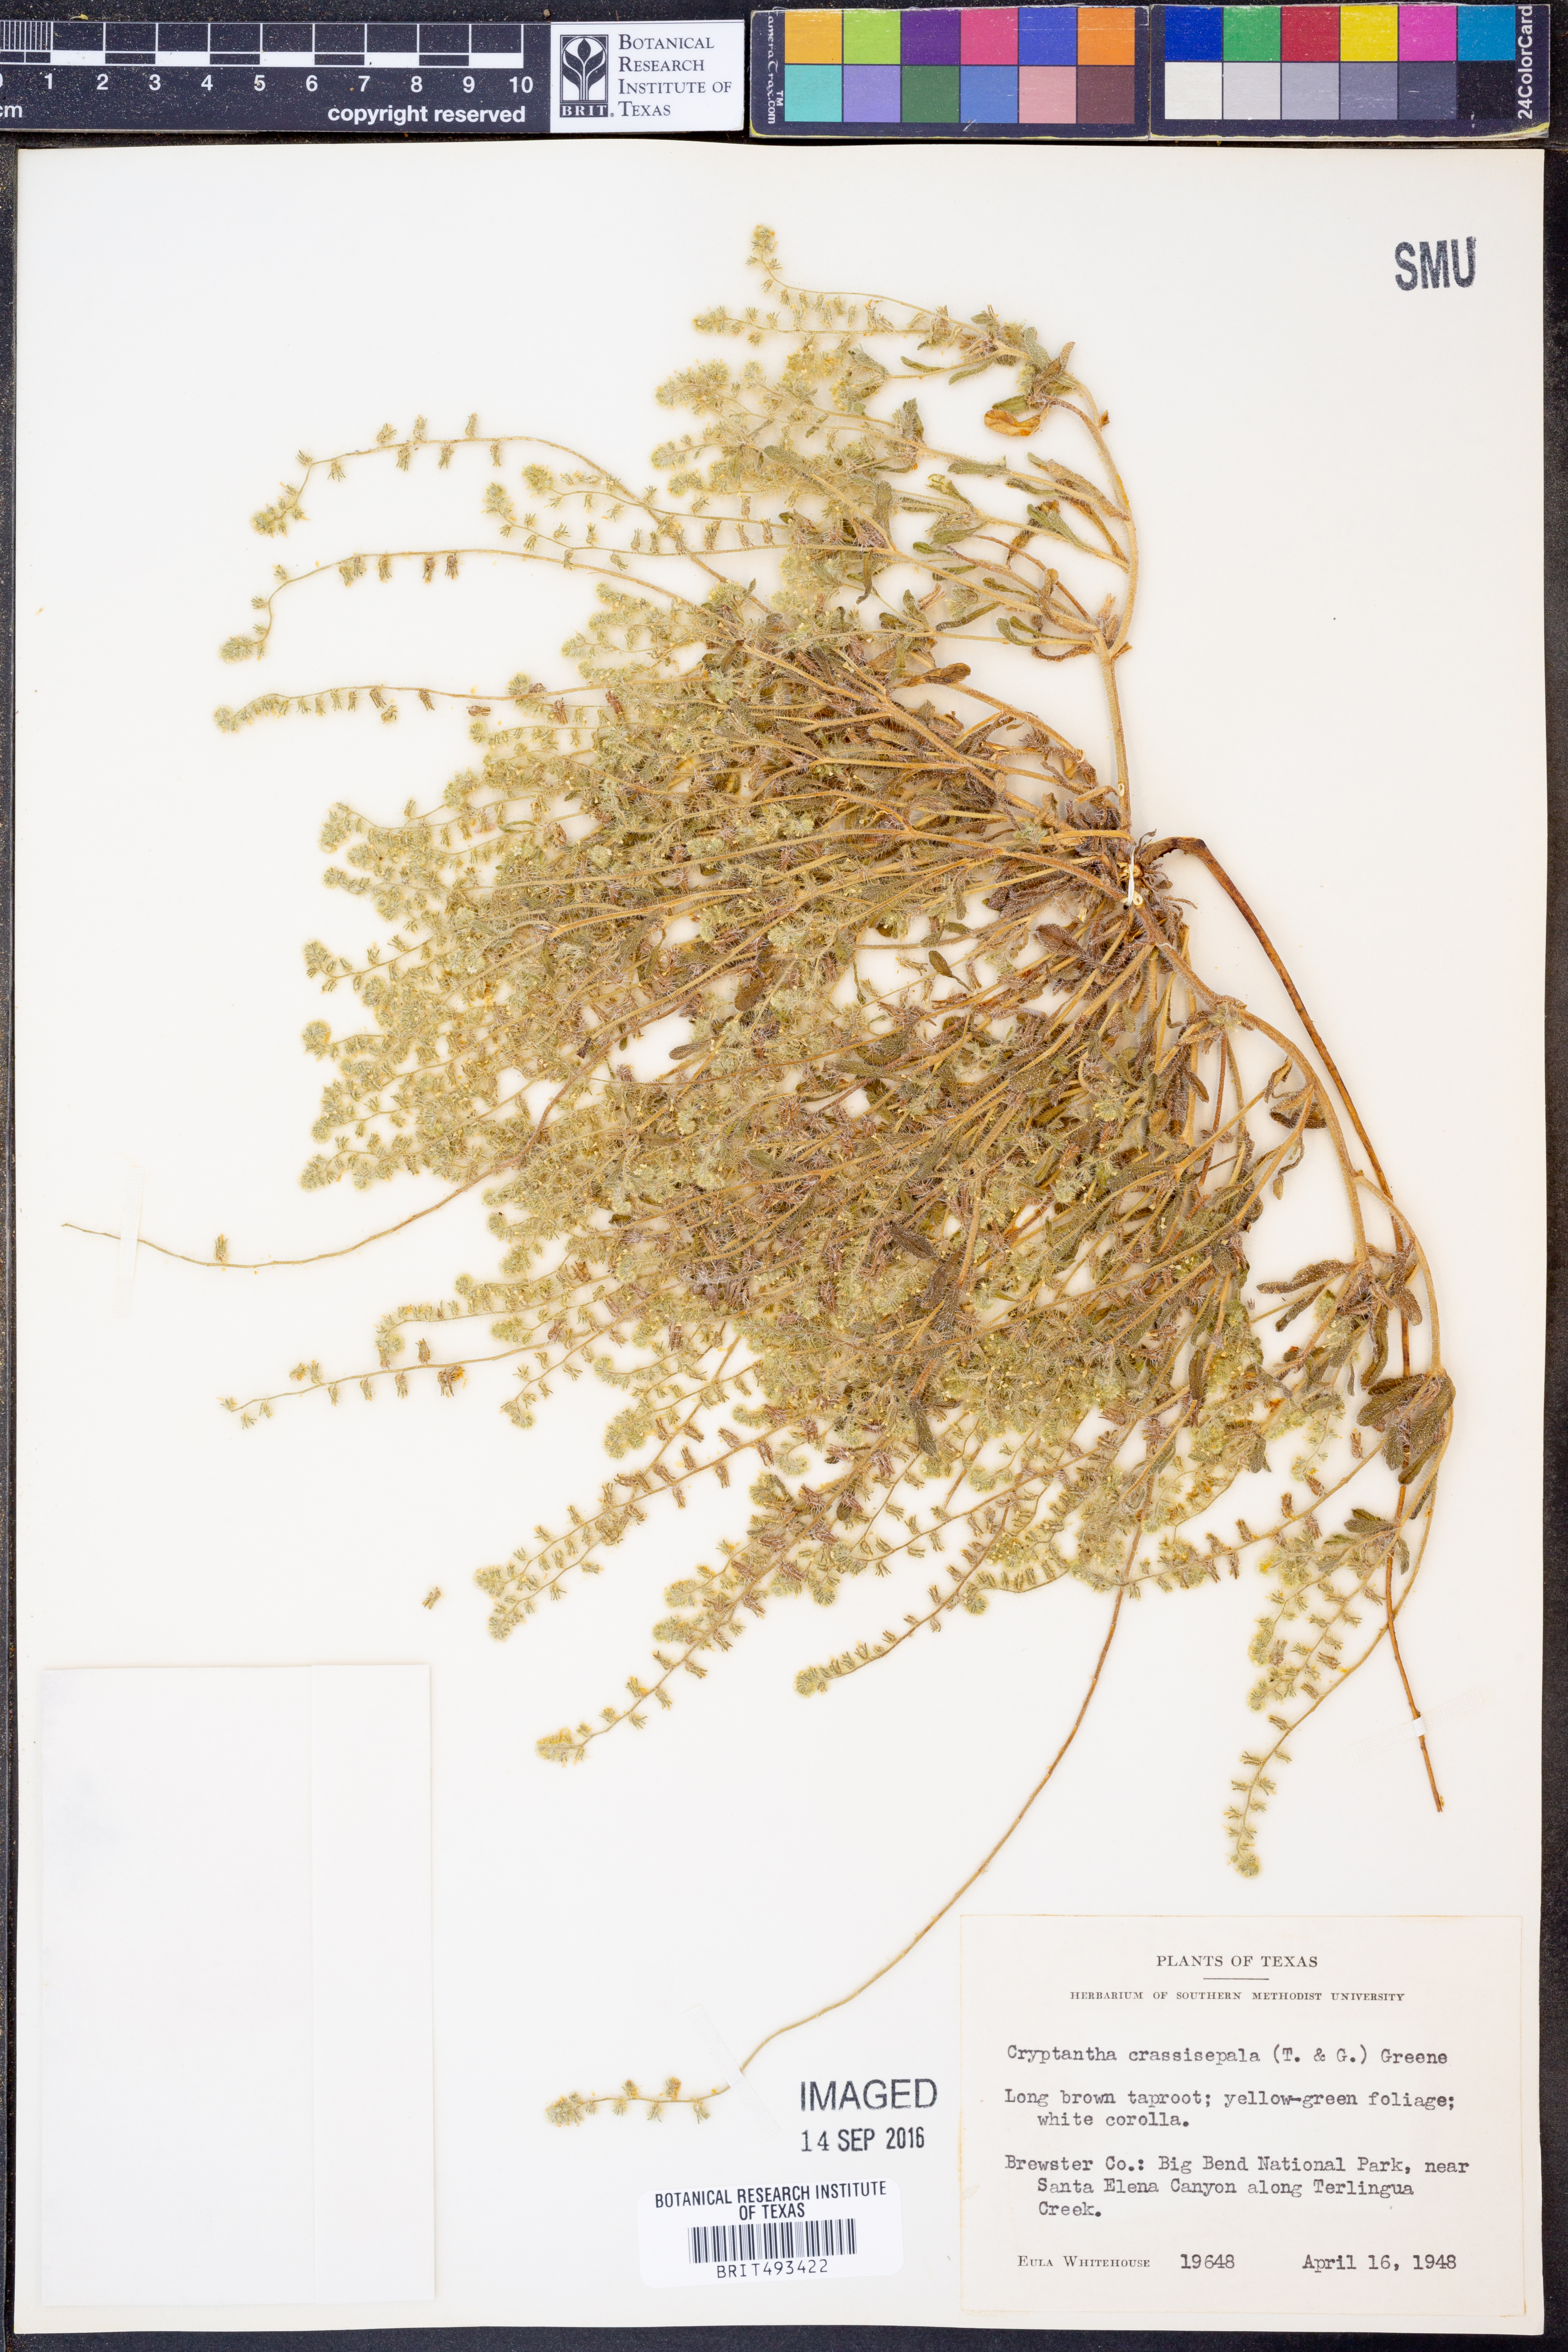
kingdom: Plantae
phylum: Tracheophyta
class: Magnoliopsida
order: Boraginales
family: Boraginaceae
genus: Cryptantha
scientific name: Cryptantha crassisepala
